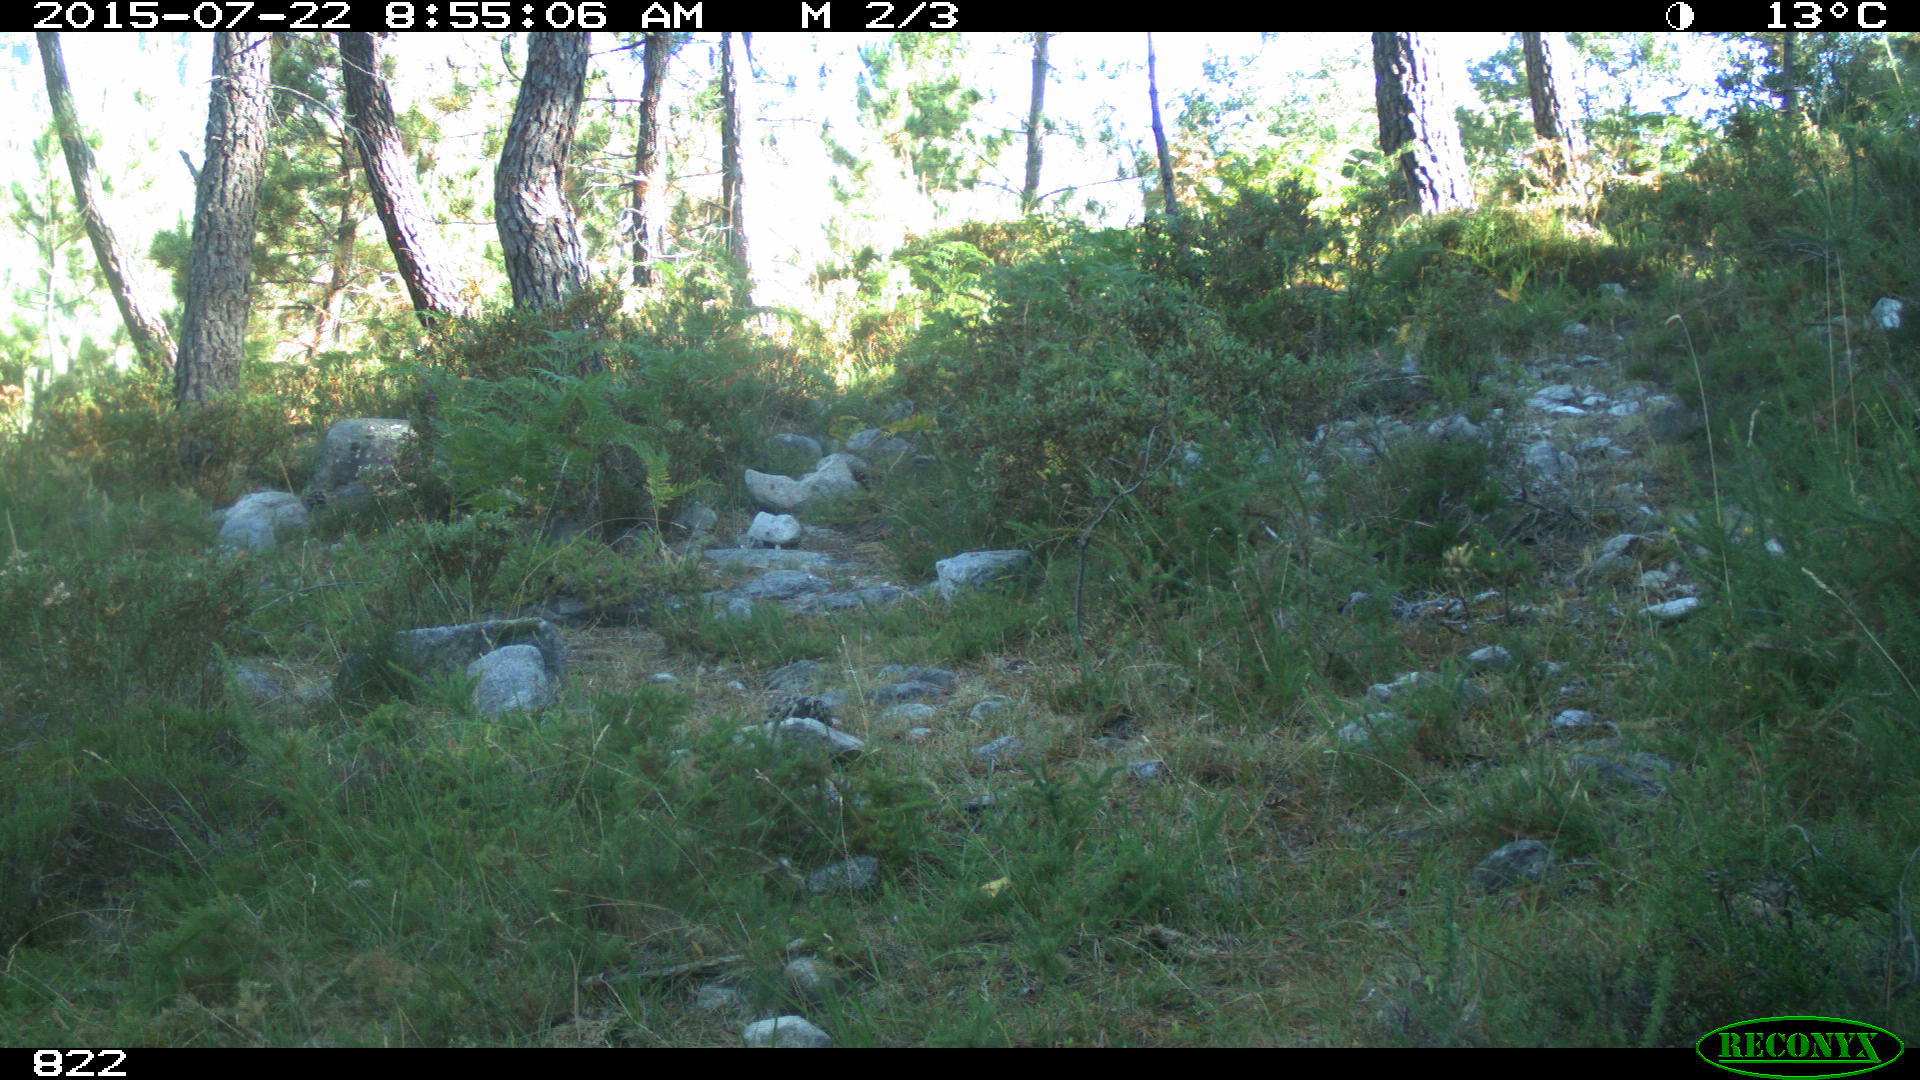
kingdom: Animalia
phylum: Chordata
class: Mammalia
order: Artiodactyla
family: Cervidae
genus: Capreolus
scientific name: Capreolus capreolus
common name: Western roe deer
